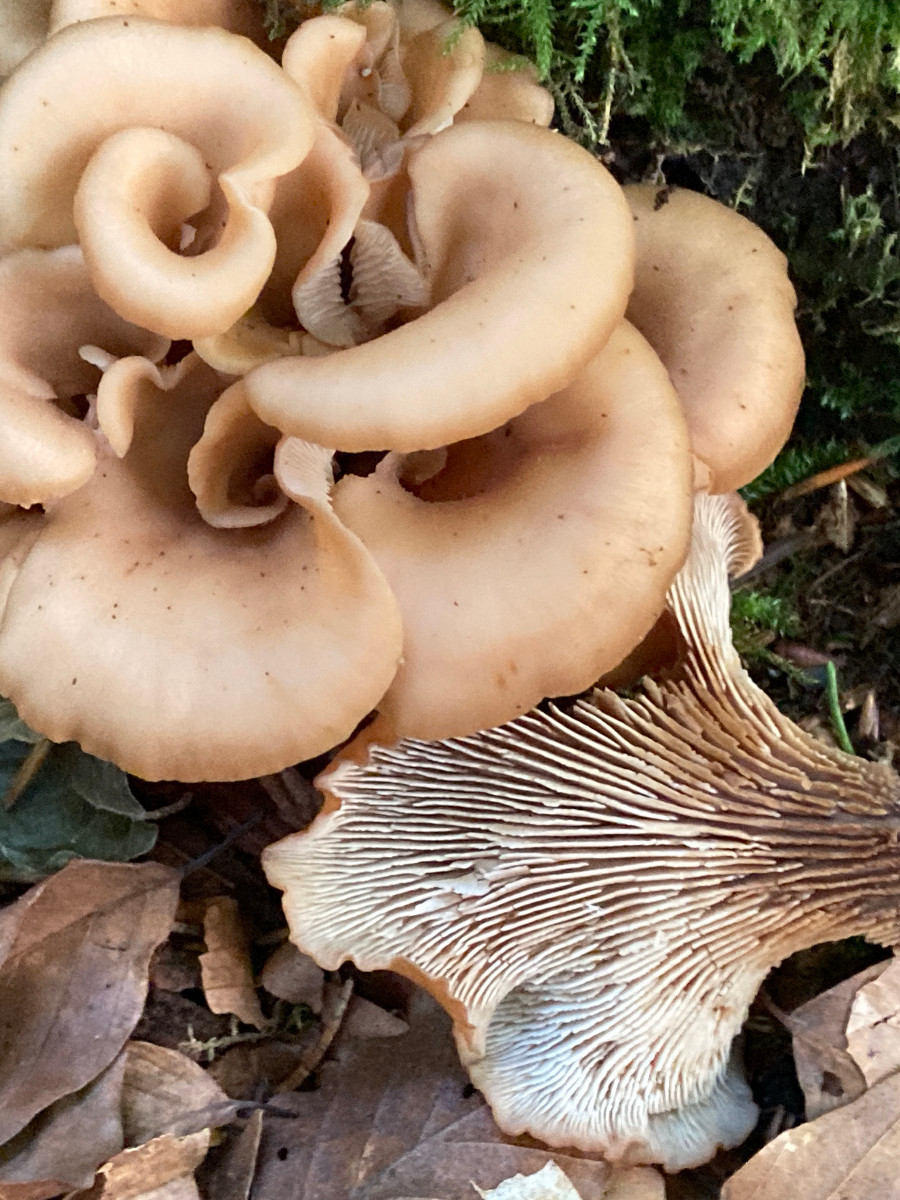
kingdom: Fungi
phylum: Basidiomycota
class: Agaricomycetes
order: Russulales
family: Auriscalpiaceae
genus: Lentinellus
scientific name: Lentinellus cochleatus
